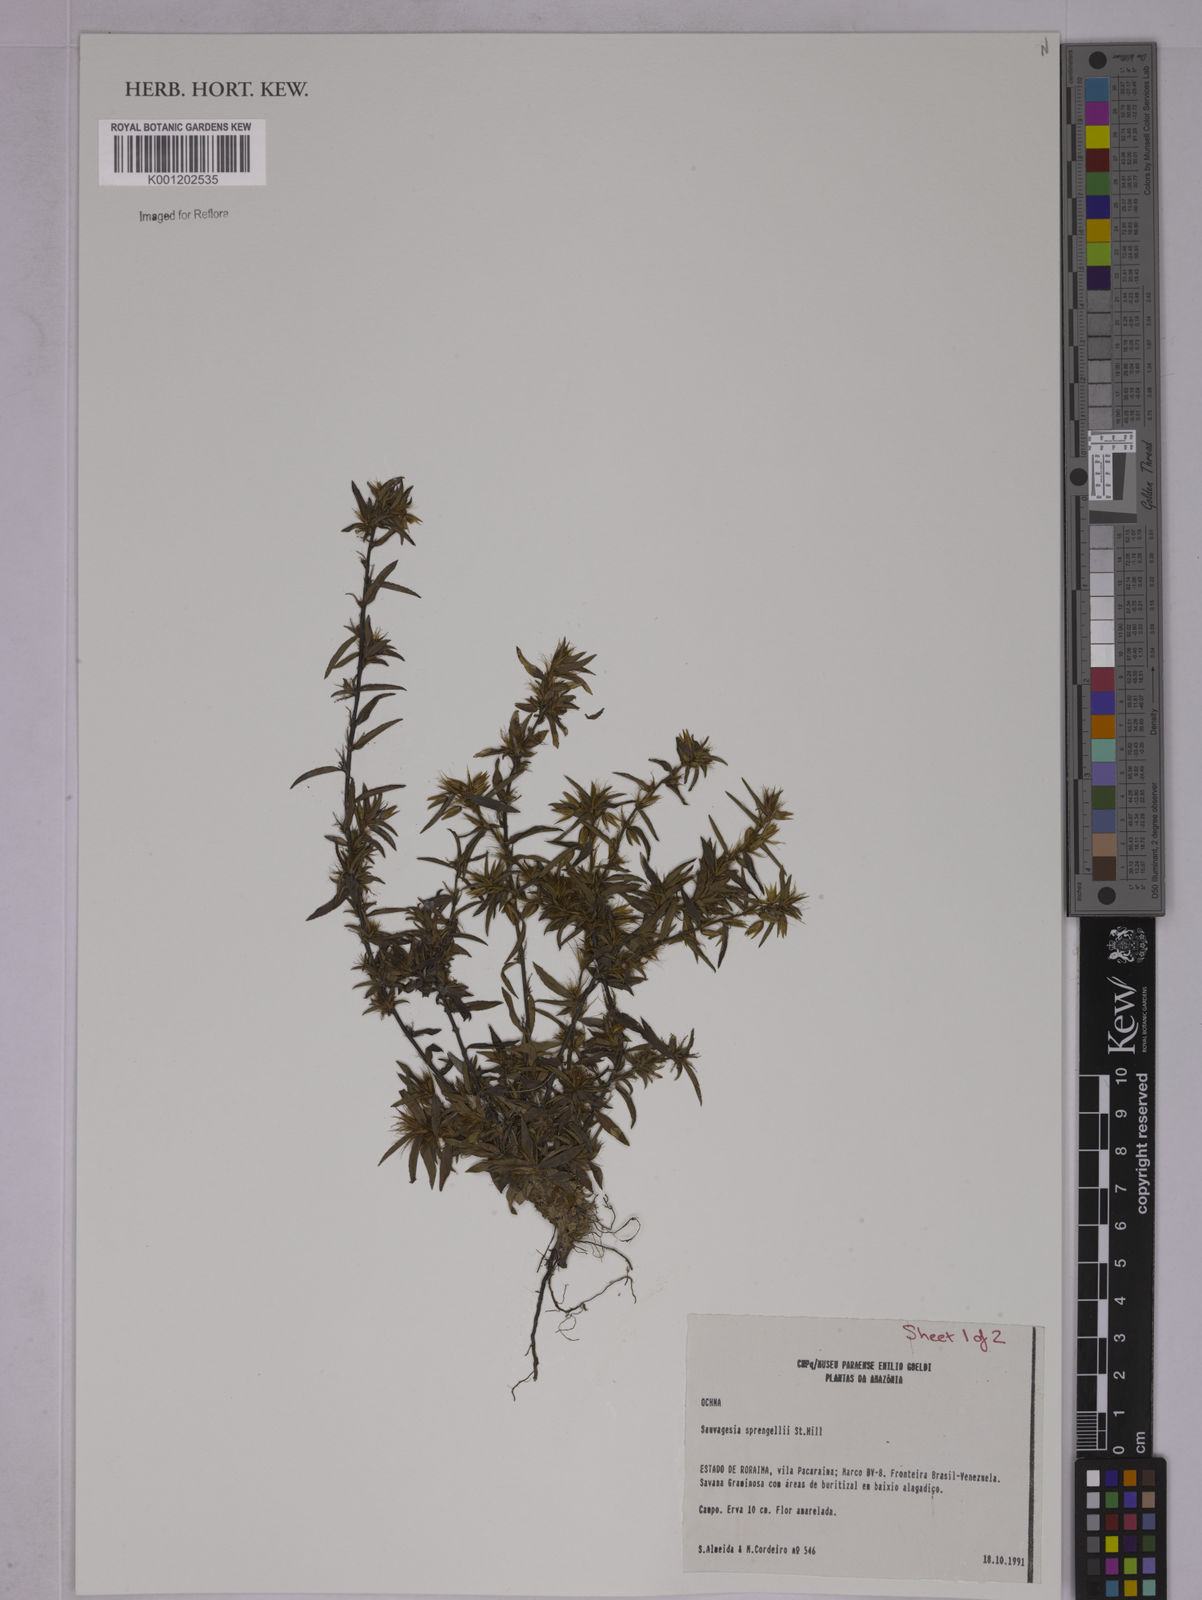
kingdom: Plantae
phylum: Tracheophyta
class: Magnoliopsida
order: Malpighiales
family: Ochnaceae
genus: Sauvagesia
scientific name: Sauvagesia sprengelii
